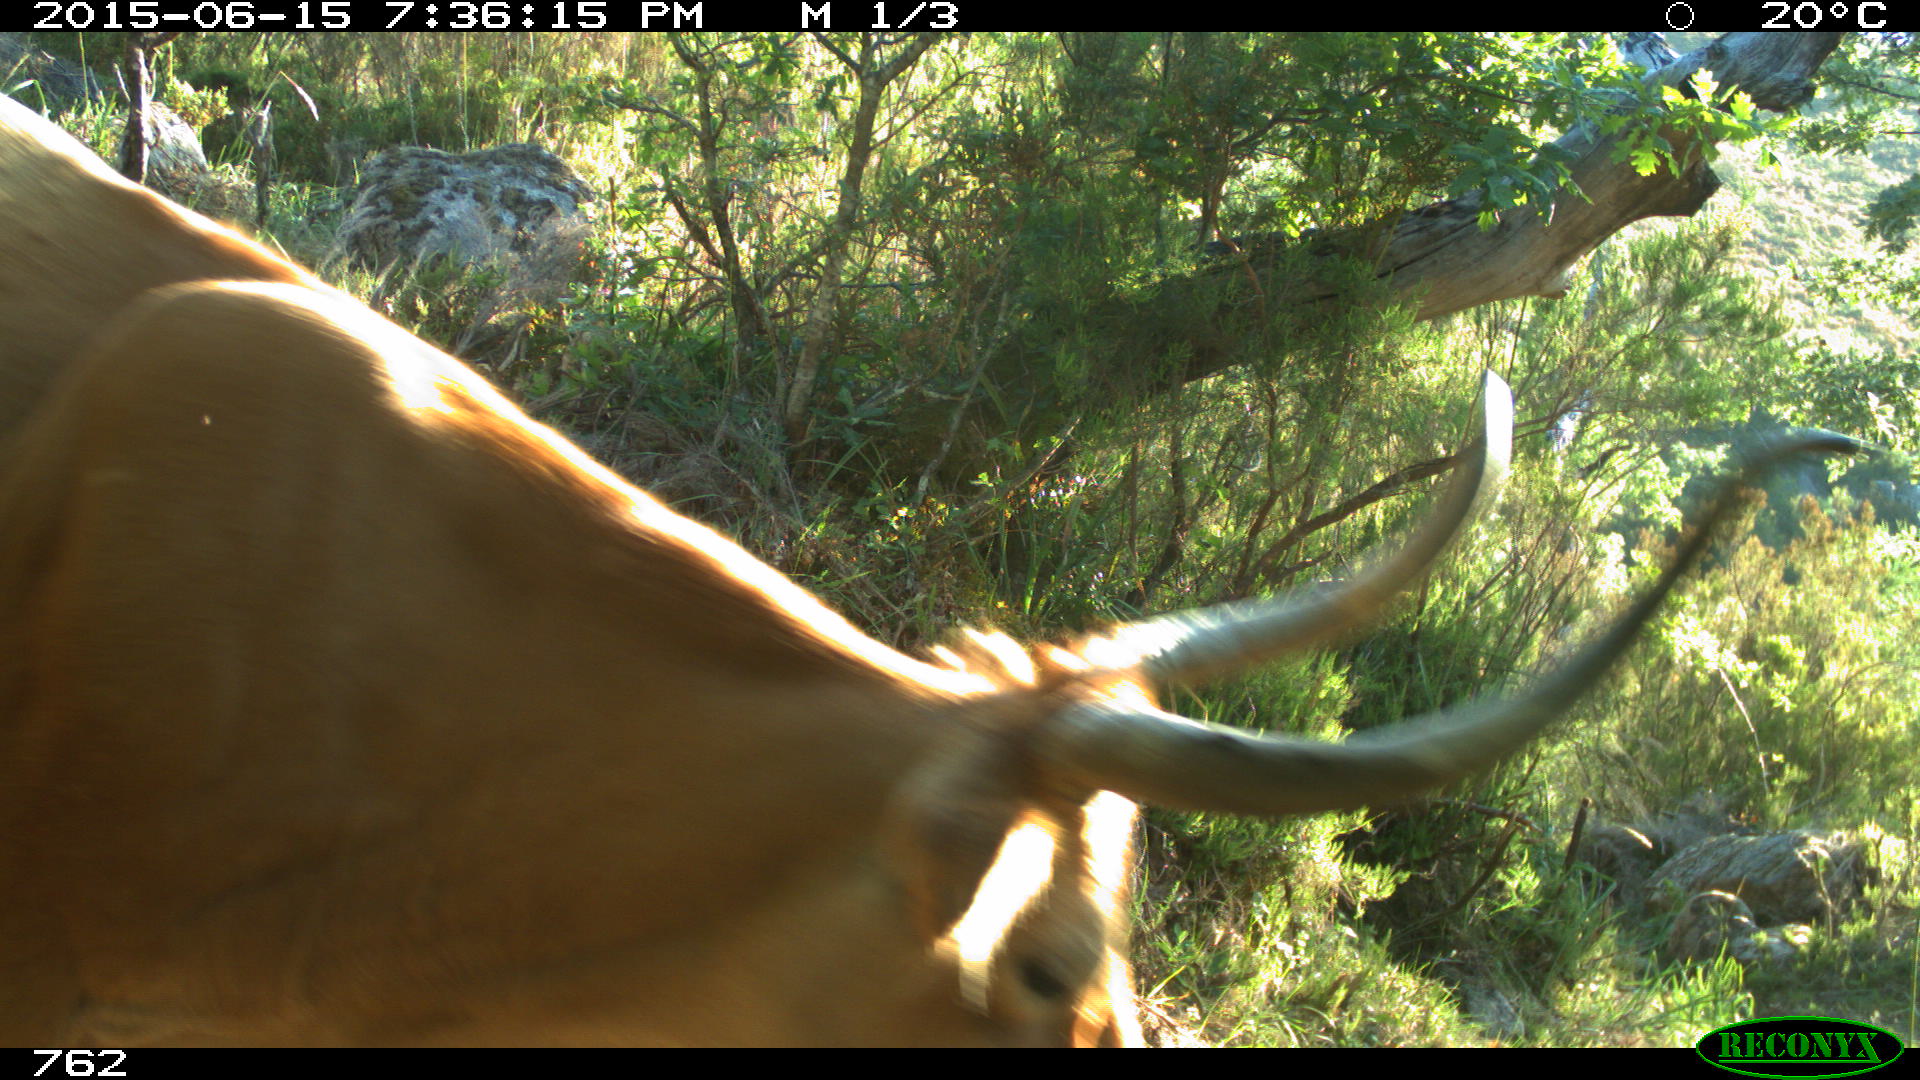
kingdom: Animalia
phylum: Chordata
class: Mammalia
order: Artiodactyla
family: Bovidae
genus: Bos
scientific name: Bos taurus
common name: Domesticated cattle
